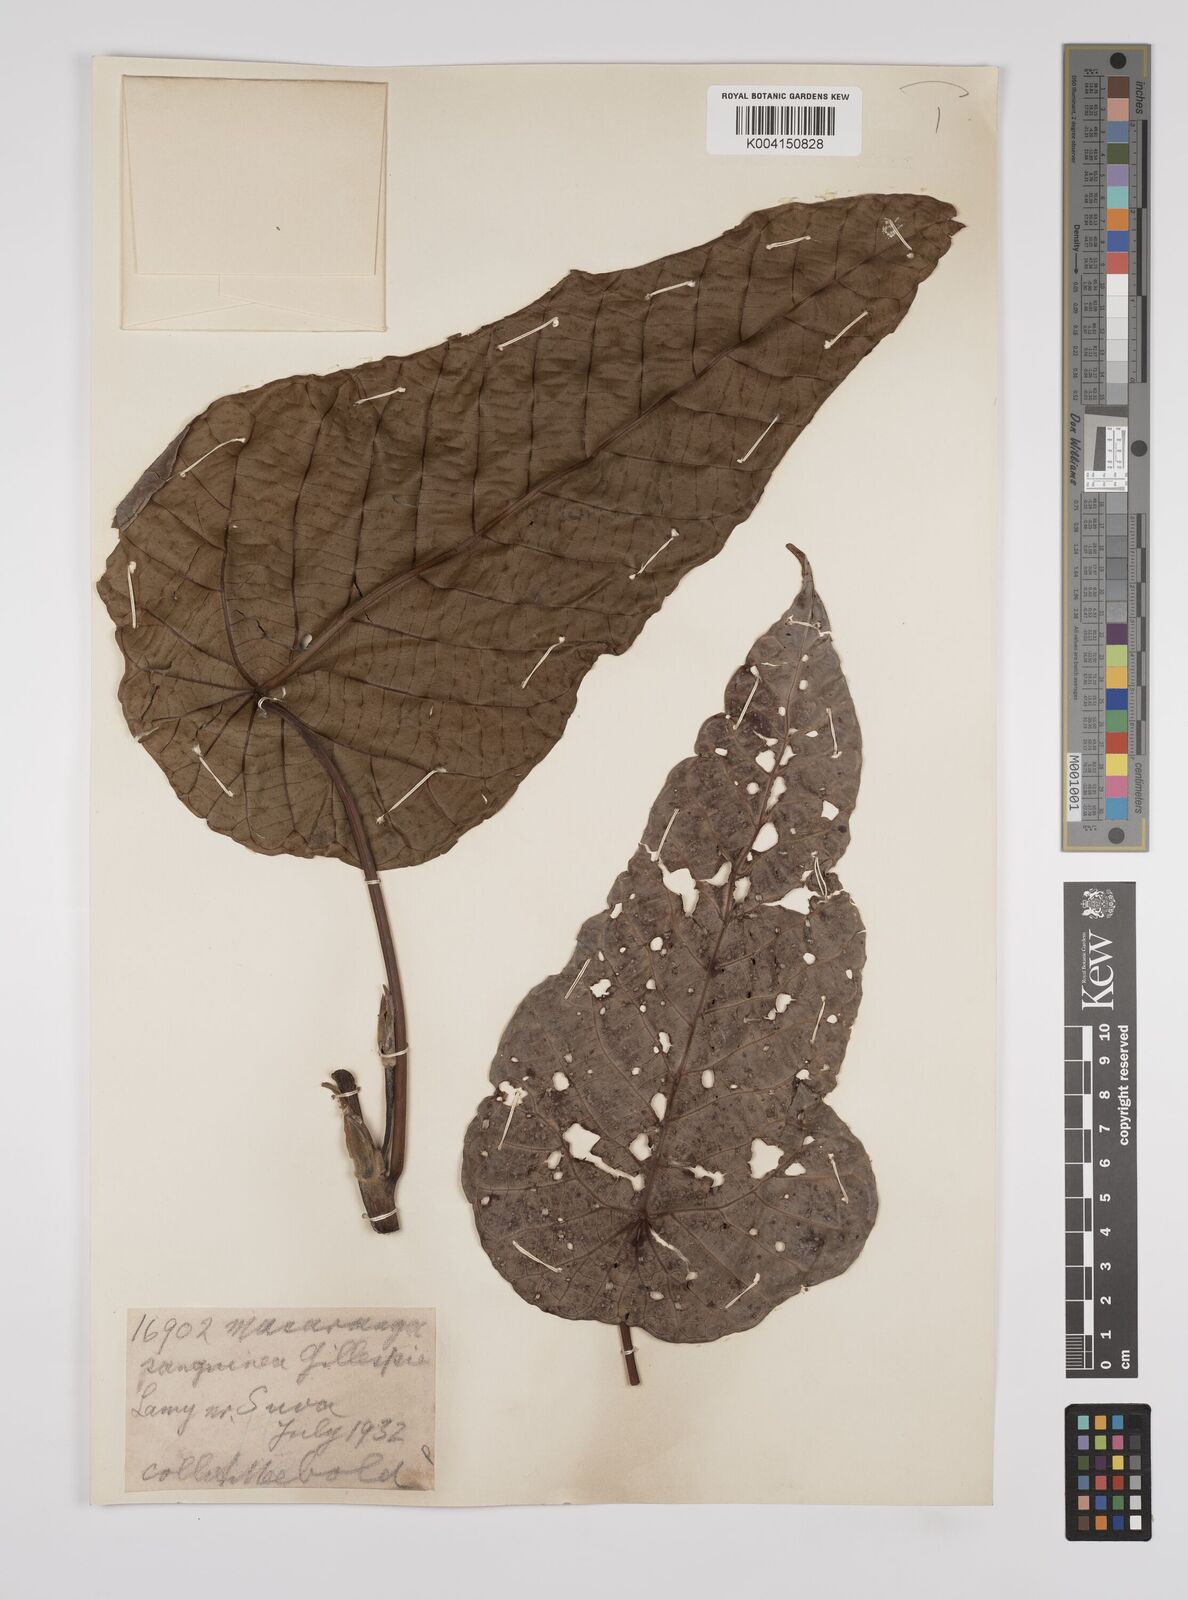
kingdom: Plantae
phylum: Tracheophyta
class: Magnoliopsida
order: Malpighiales
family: Euphorbiaceae
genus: Macaranga
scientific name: Macaranga vitiensis
